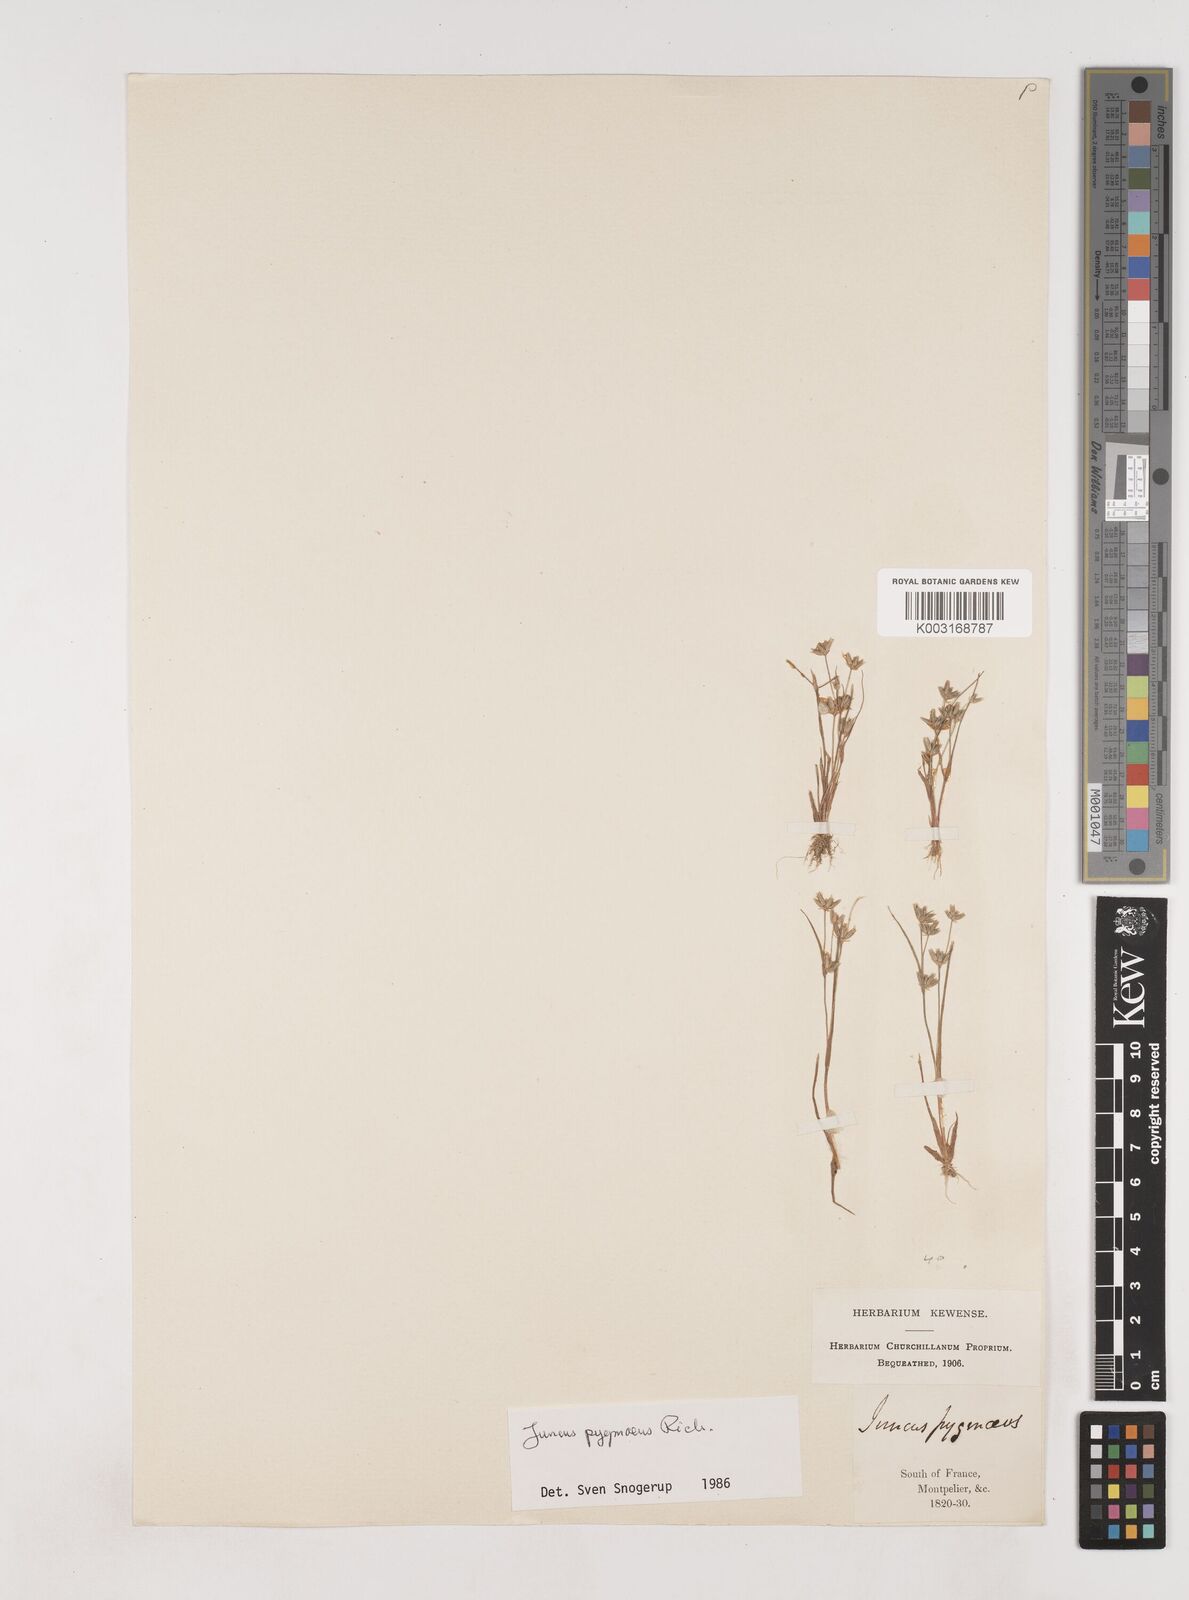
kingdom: Plantae
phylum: Tracheophyta
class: Liliopsida
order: Poales
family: Juncaceae
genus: Juncus
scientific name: Juncus pygmaeus
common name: Pigmy rush
